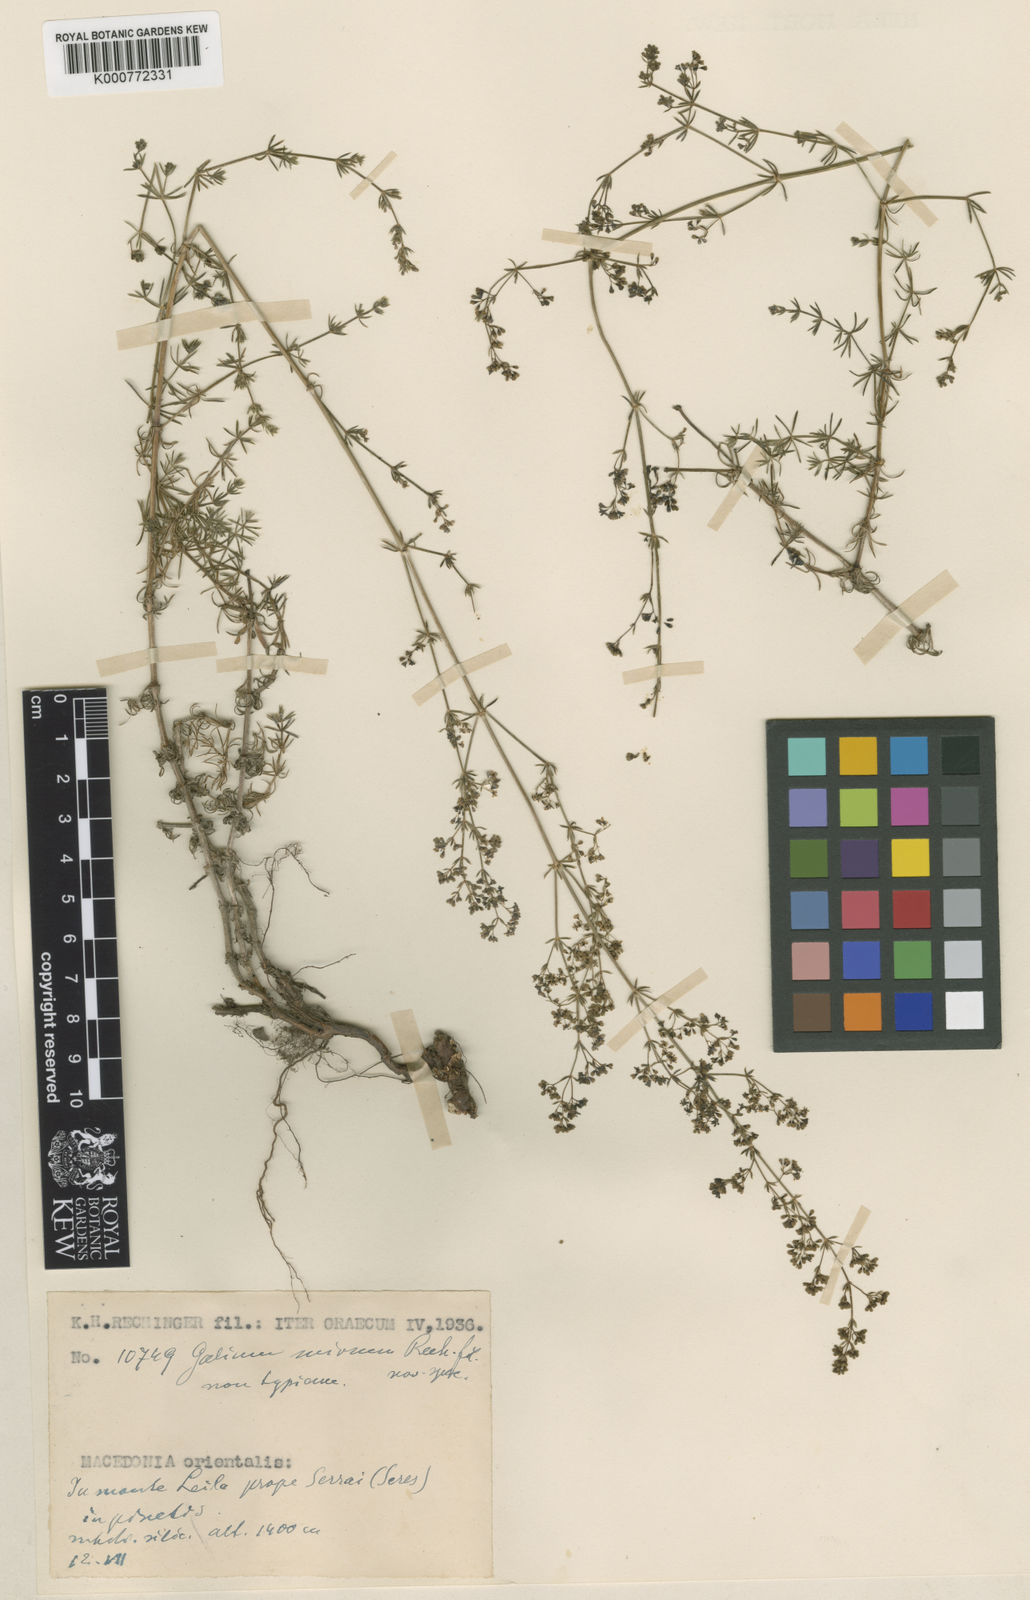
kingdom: Plantae
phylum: Tracheophyta
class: Magnoliopsida
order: Gentianales
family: Rubiaceae
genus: Galium
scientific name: Galium mirum
